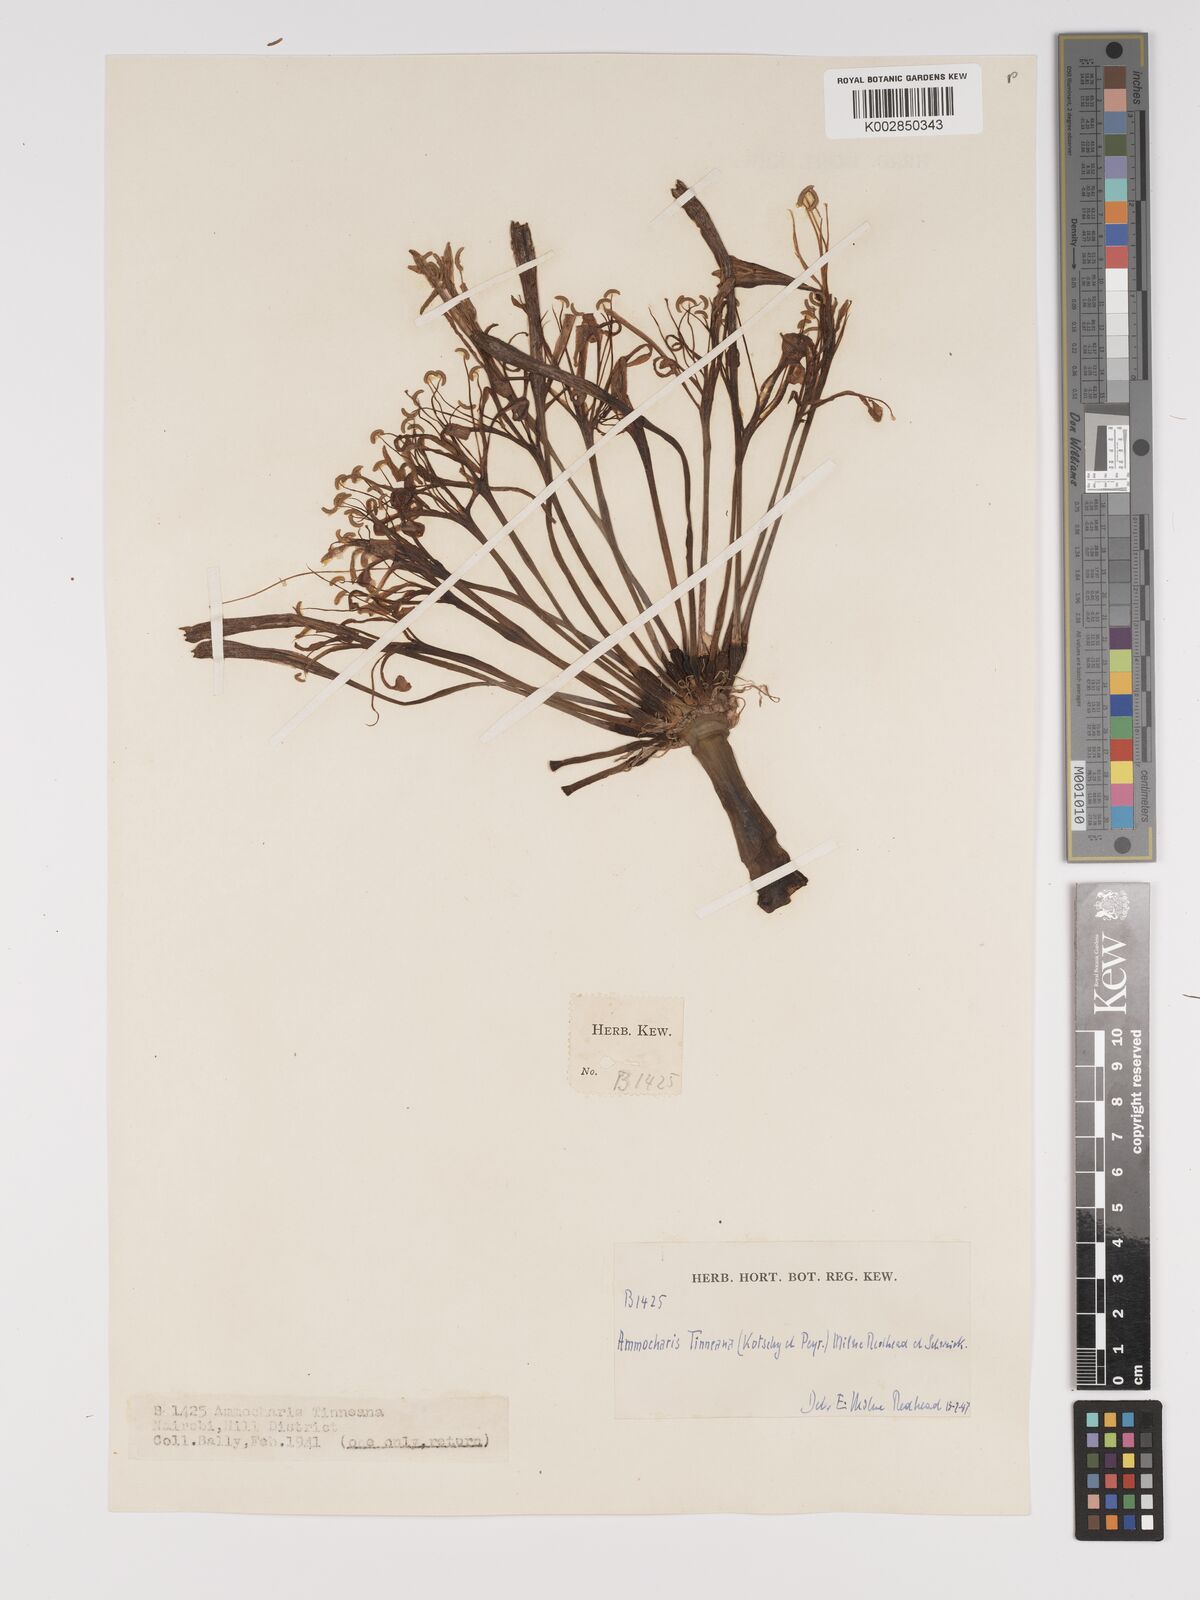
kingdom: Plantae
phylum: Tracheophyta
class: Liliopsida
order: Asparagales
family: Amaryllidaceae
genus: Ammocharis
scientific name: Ammocharis tinneana
